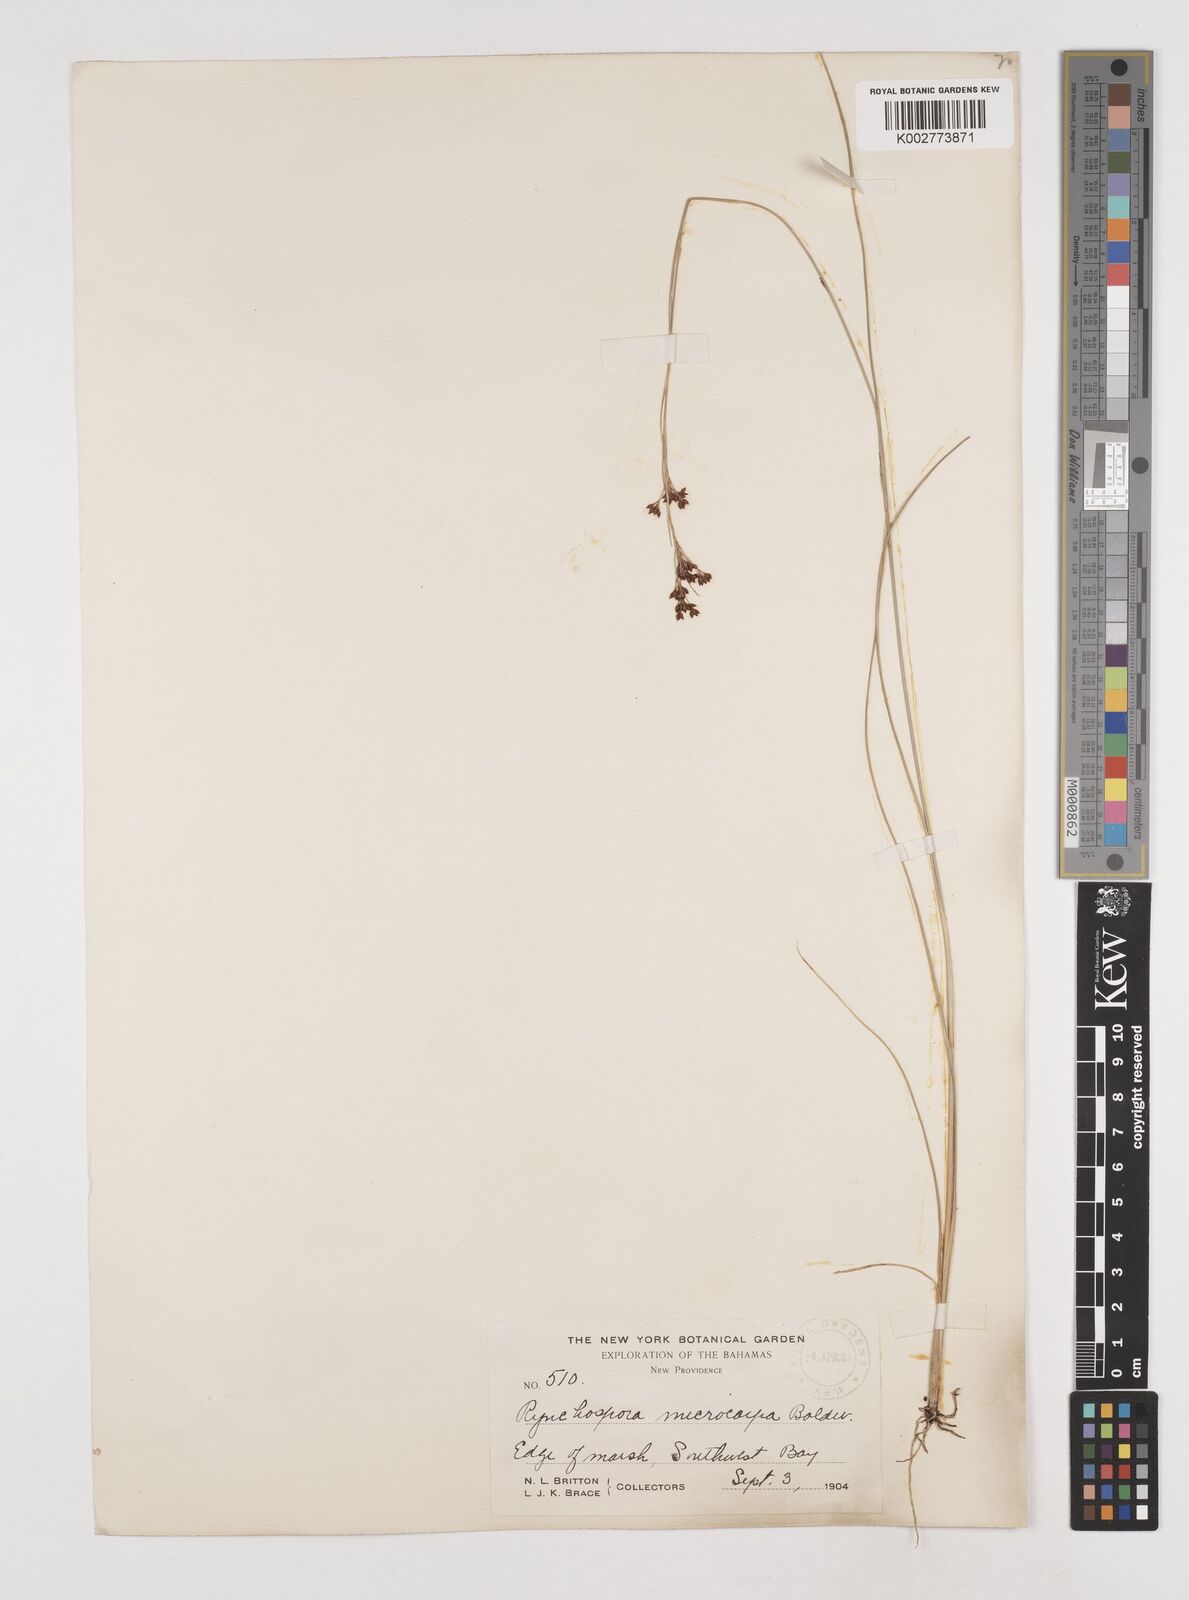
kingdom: Plantae
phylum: Tracheophyta
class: Liliopsida
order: Poales
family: Cyperaceae
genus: Rhynchospora
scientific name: Rhynchospora microcarpa
